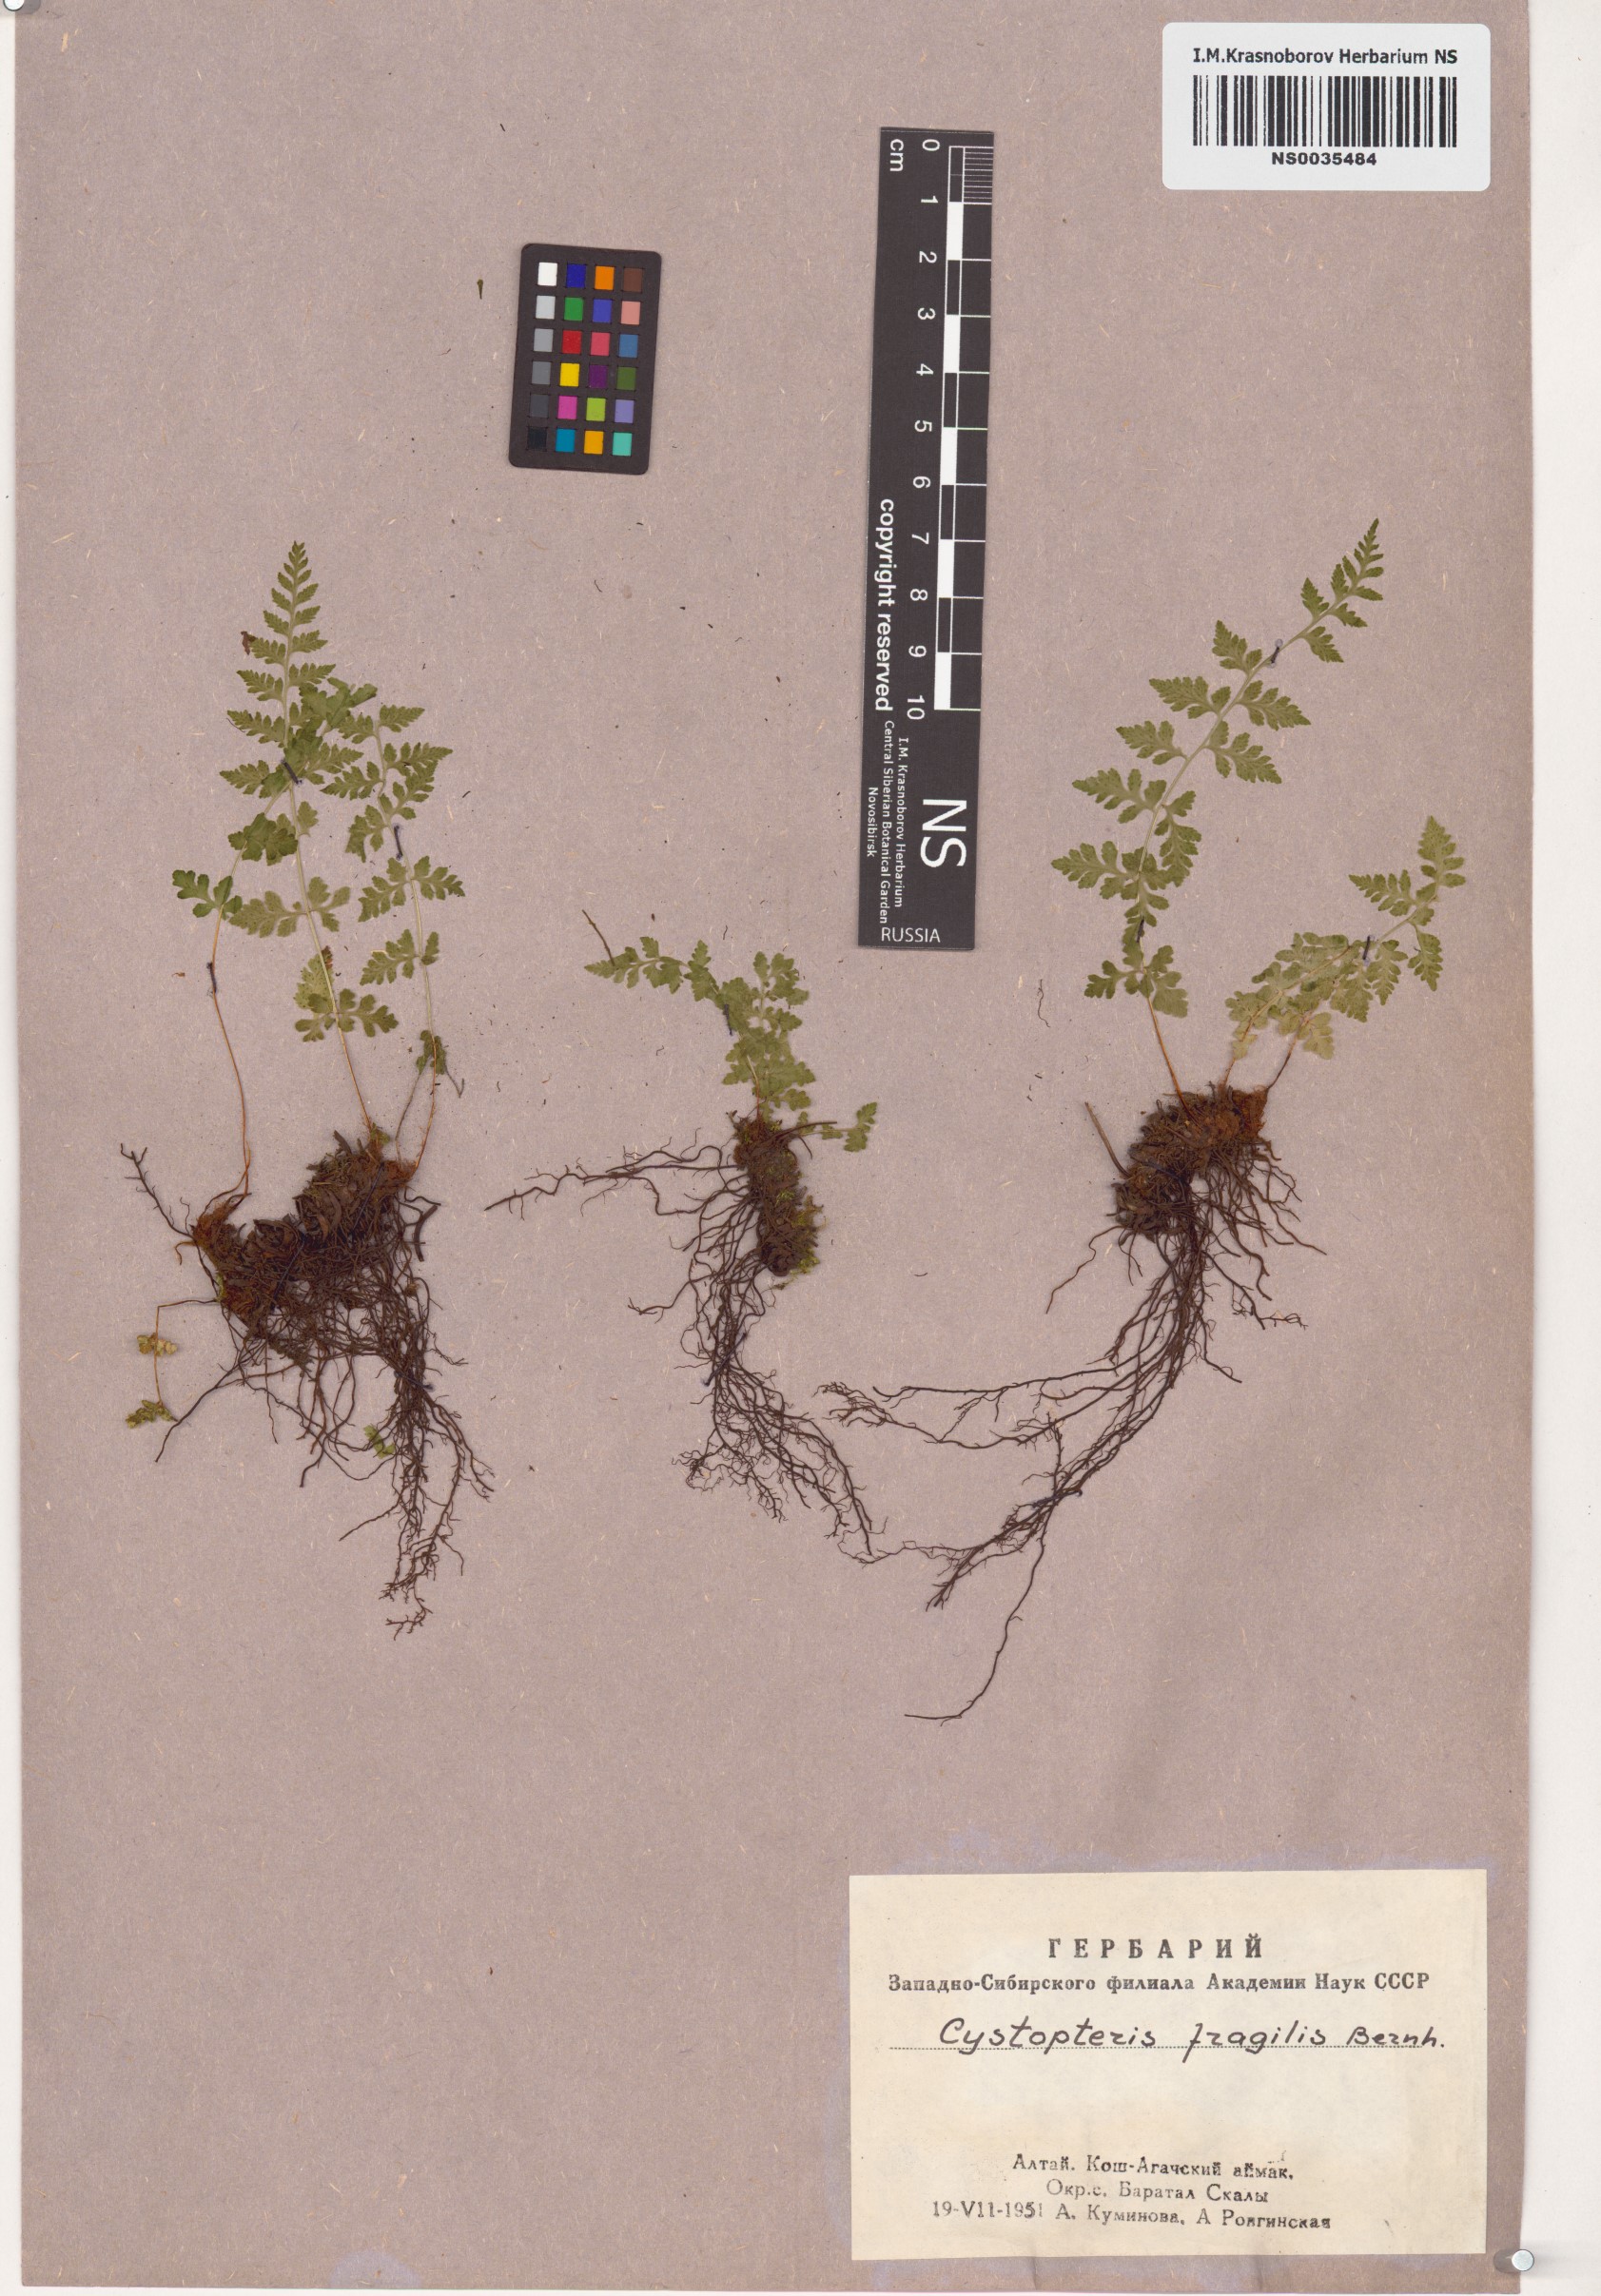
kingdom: Plantae
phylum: Tracheophyta
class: Polypodiopsida
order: Polypodiales
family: Cystopteridaceae
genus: Cystopteris
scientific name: Cystopteris fragilis
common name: Brittle bladder fern
